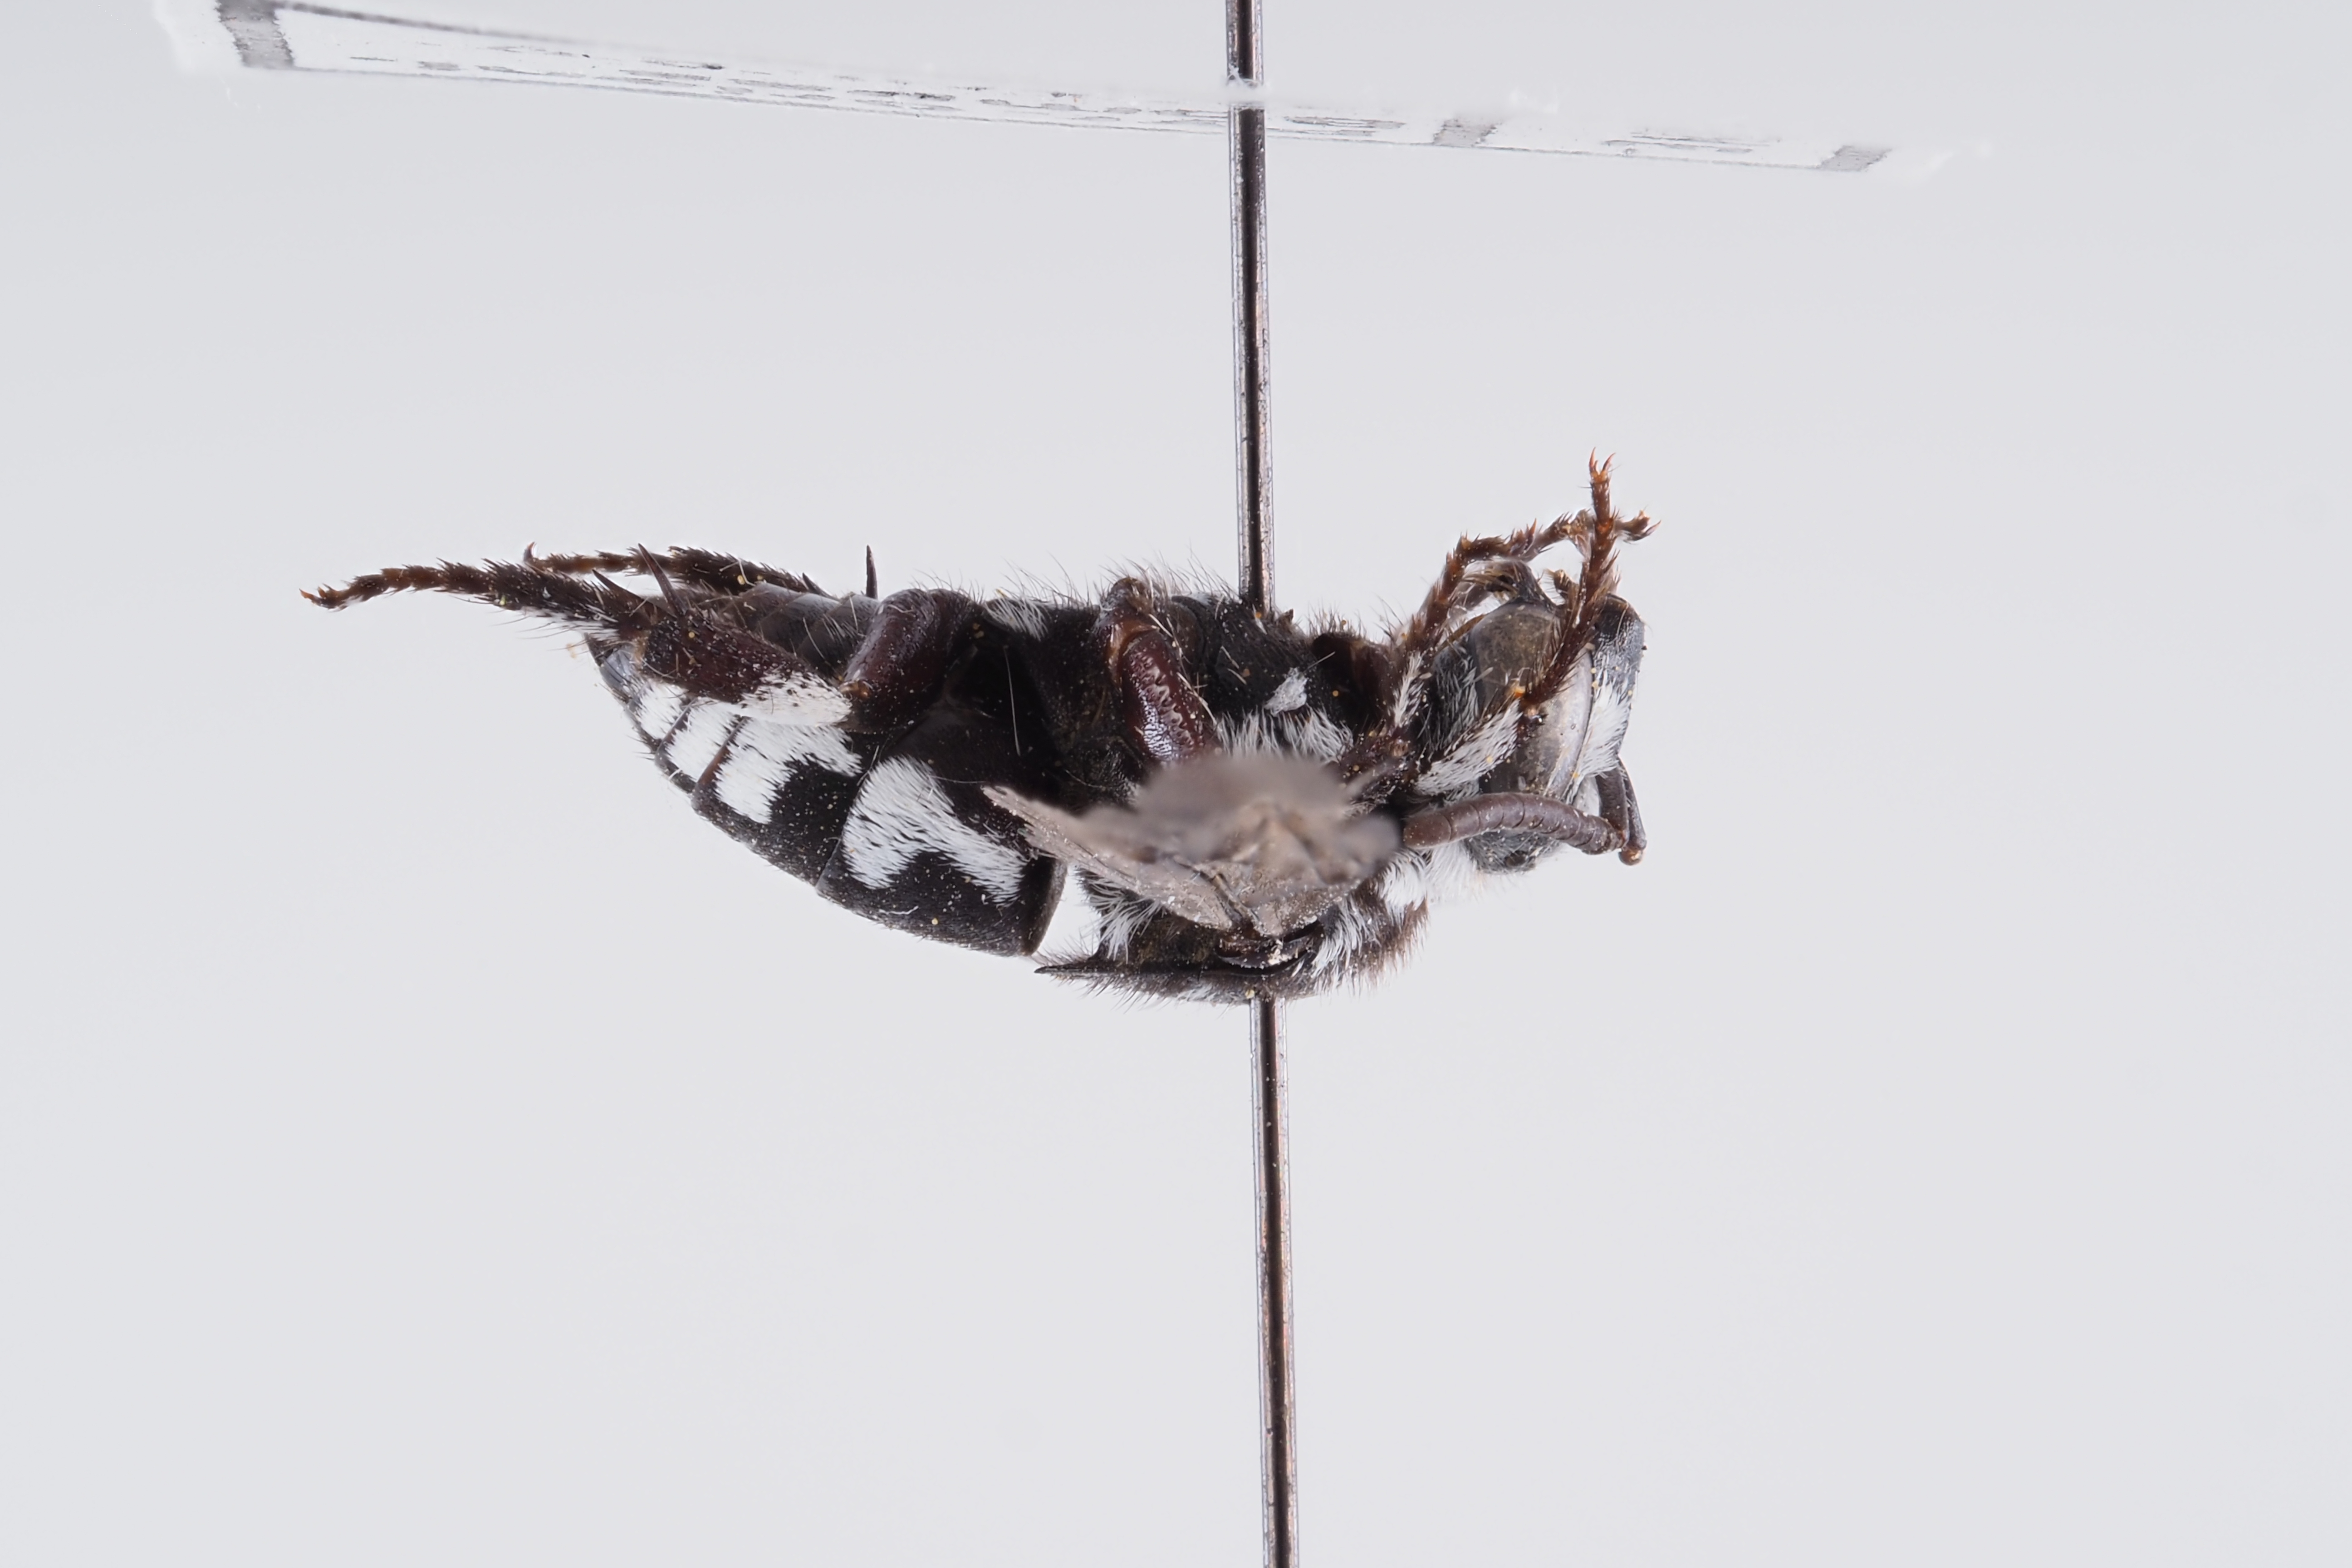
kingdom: Animalia
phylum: Arthropoda
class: Insecta
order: Hymenoptera
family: Apidae
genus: Thyreus
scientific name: Thyreus histrionicus
